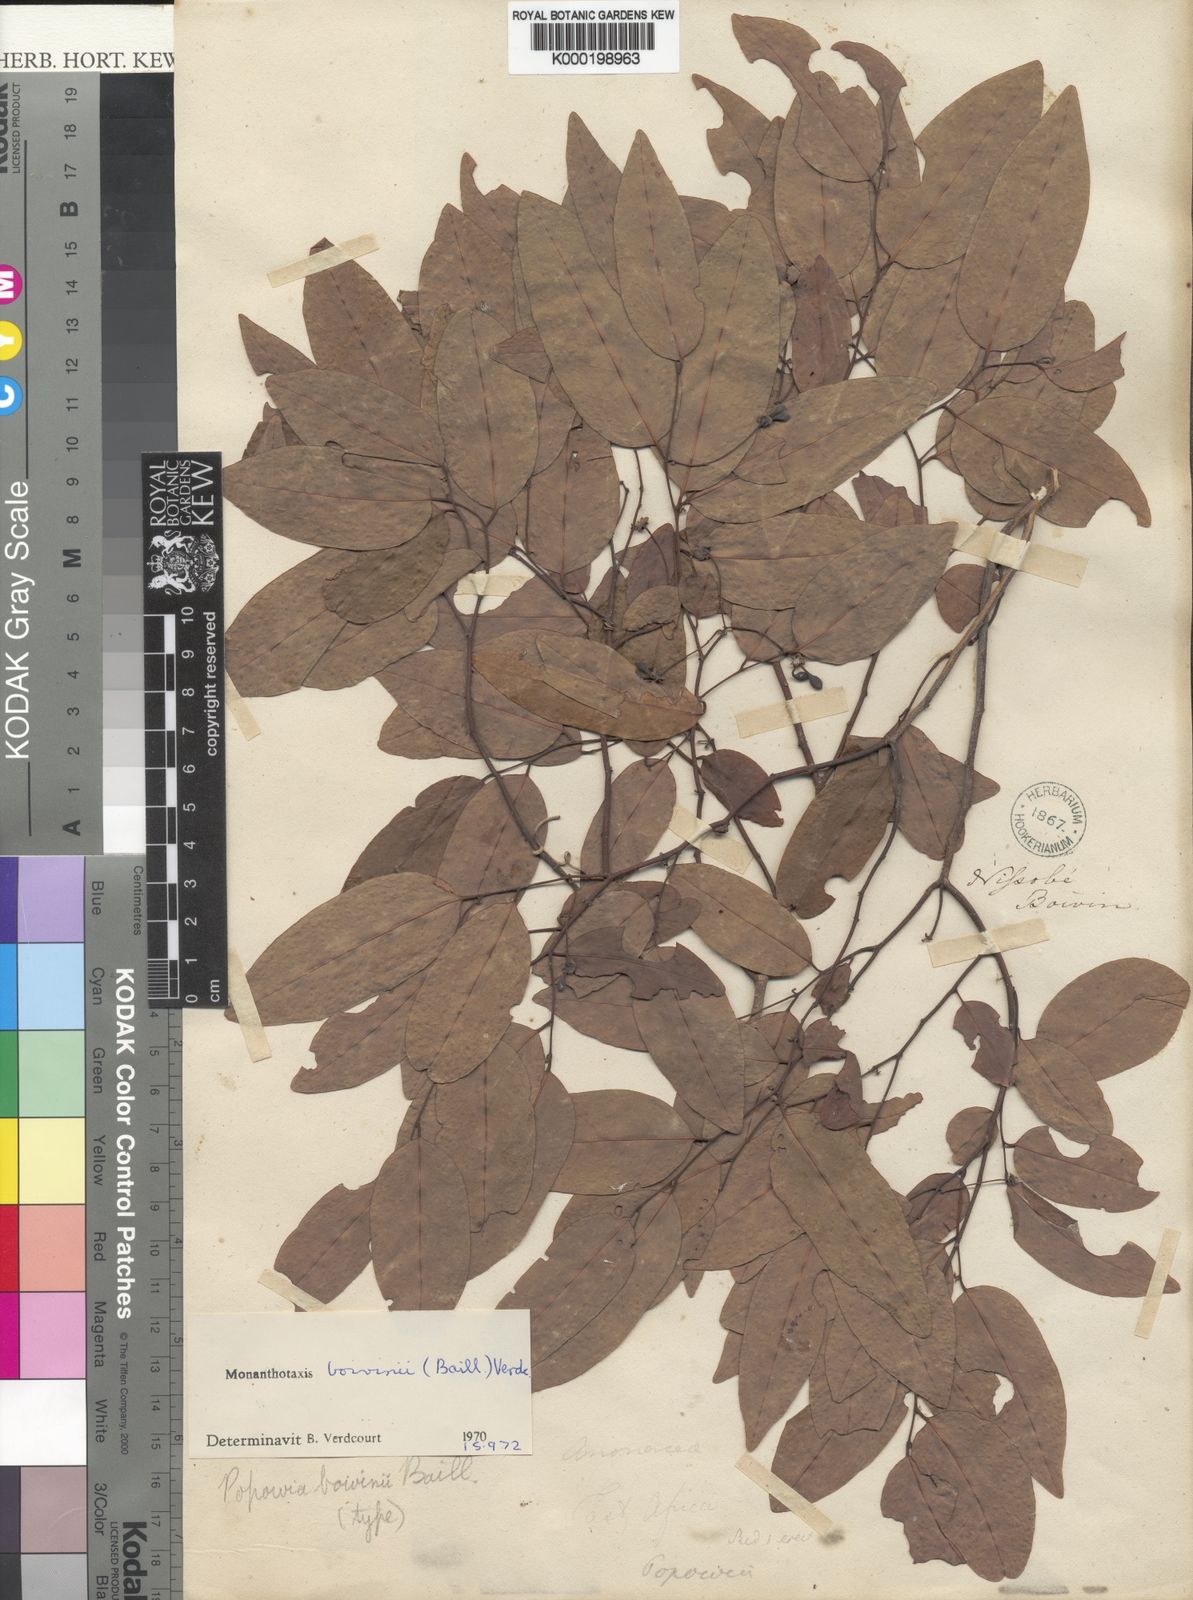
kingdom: Plantae
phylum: Tracheophyta
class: Magnoliopsida
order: Magnoliales
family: Annonaceae
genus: Monanthotaxis
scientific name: Monanthotaxis boivinii
